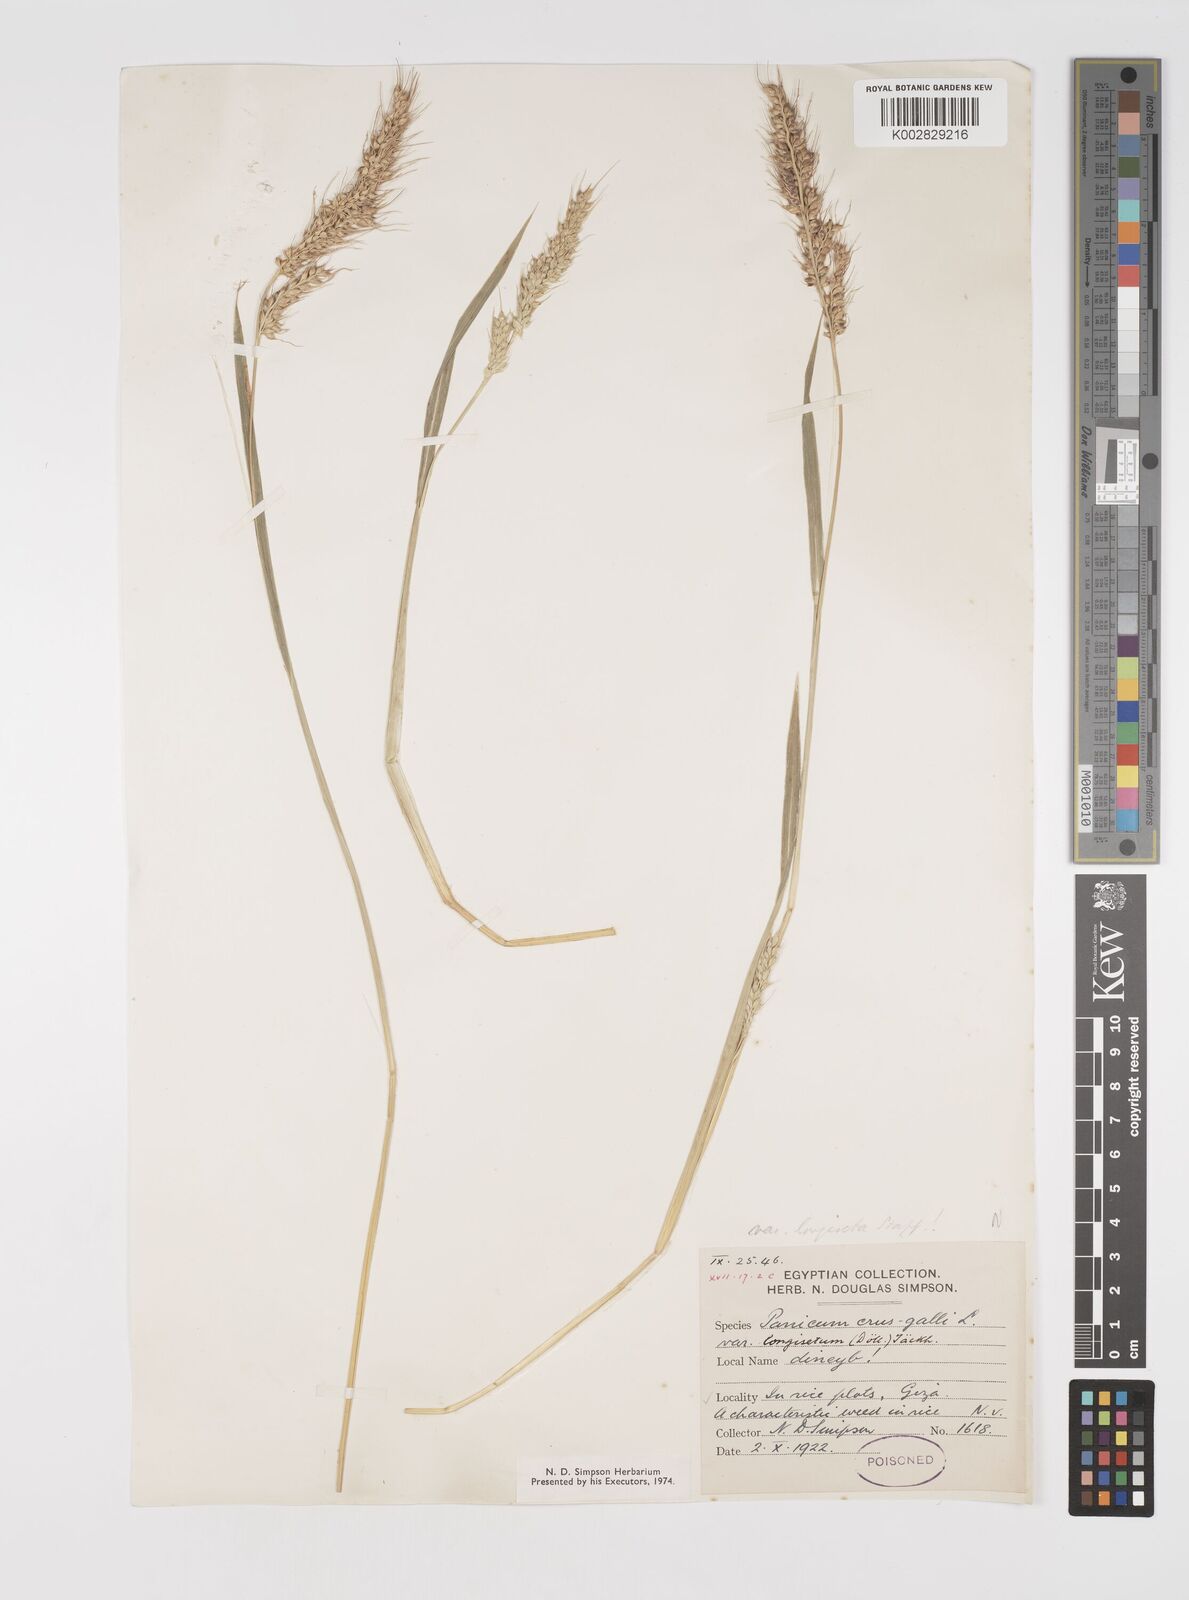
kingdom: Plantae
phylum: Tracheophyta
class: Liliopsida
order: Poales
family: Poaceae
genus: Echinochloa
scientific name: Echinochloa crus-galli
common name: Cockspur
